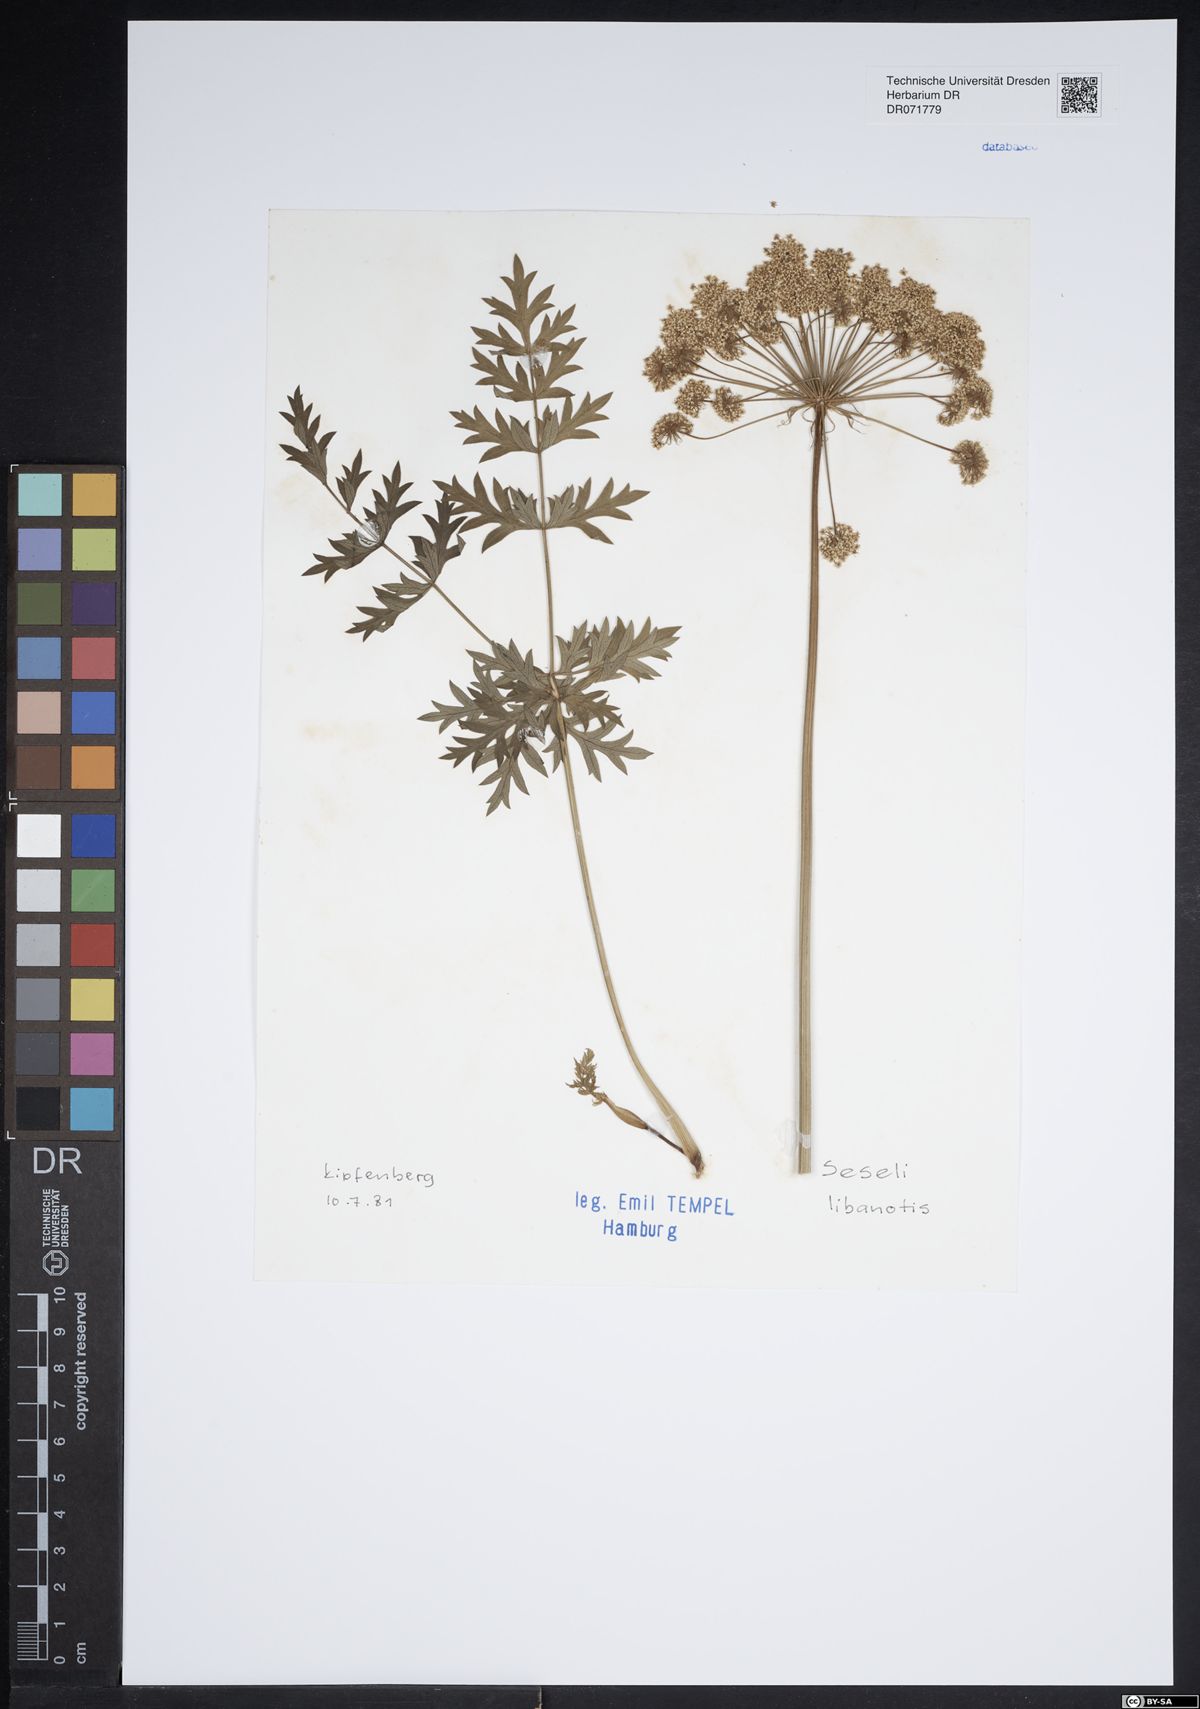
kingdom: Plantae
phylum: Tracheophyta
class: Magnoliopsida
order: Apiales
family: Apiaceae
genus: Seseli
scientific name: Seseli libanotis
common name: Mooncarrot
